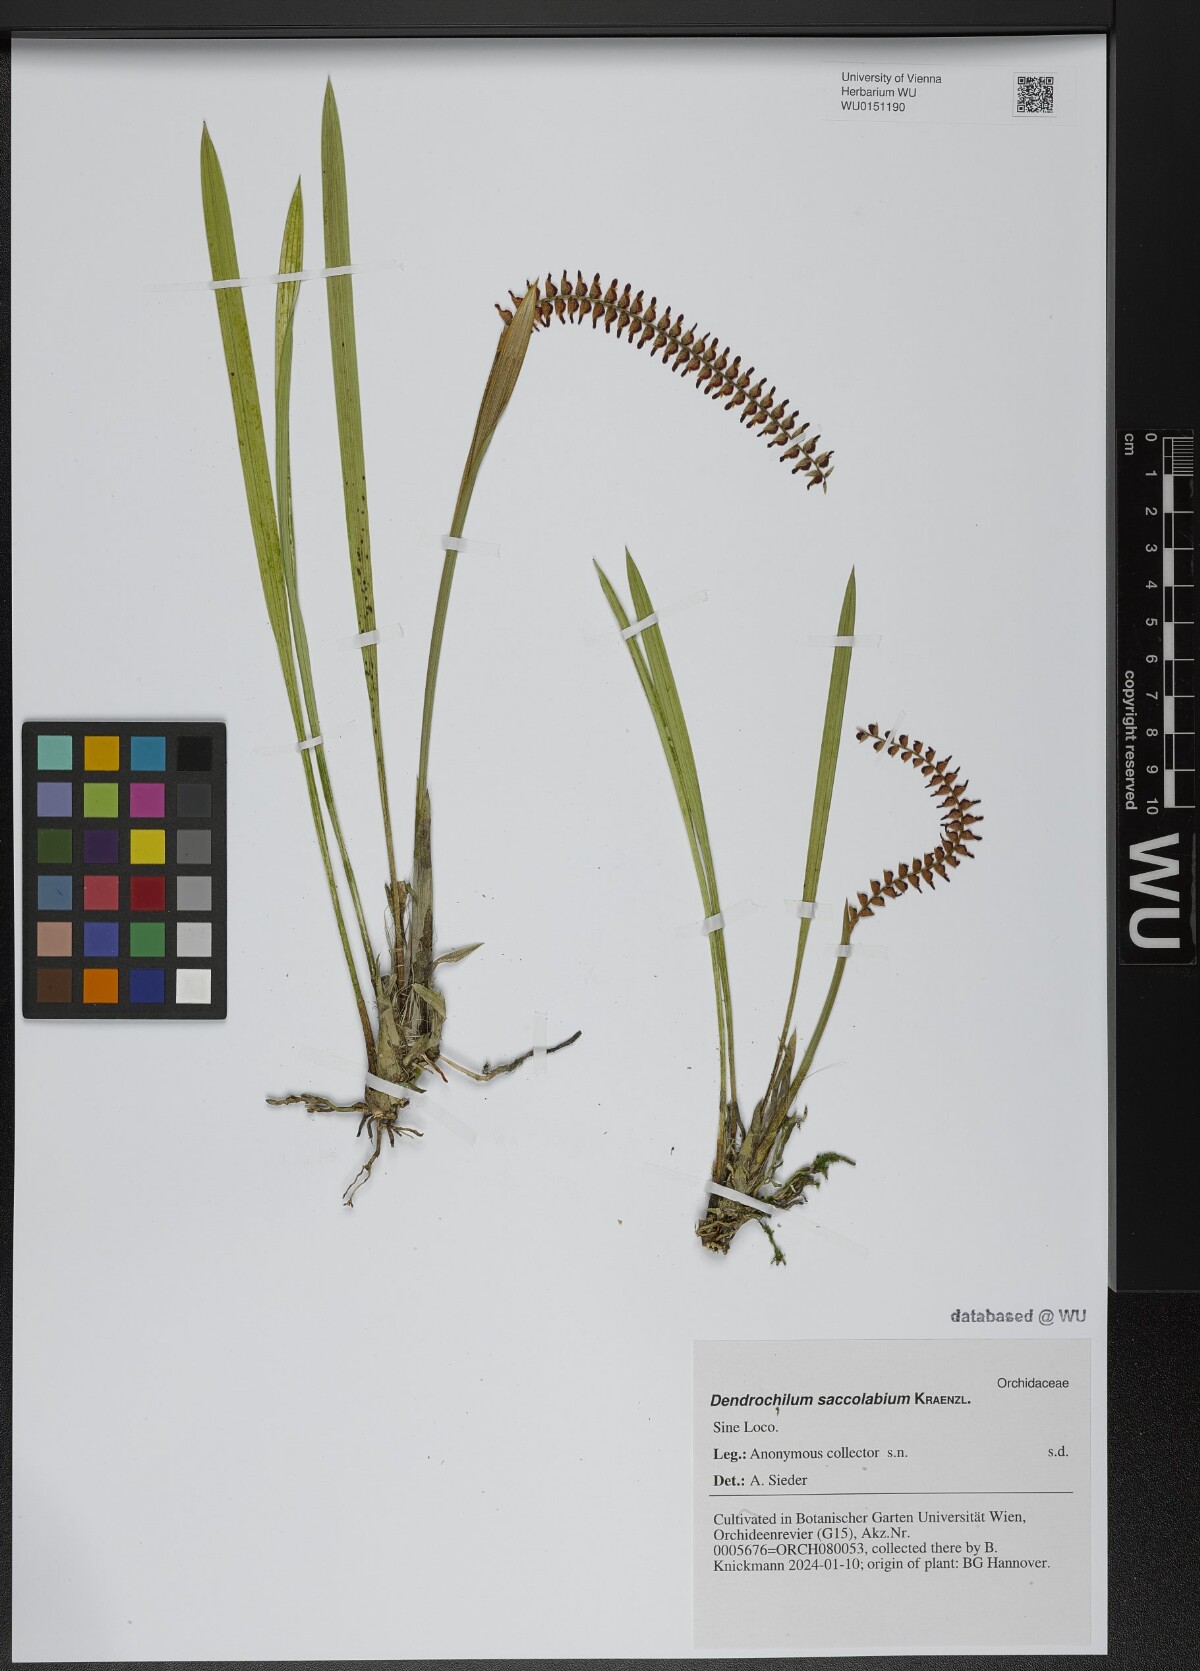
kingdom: Plantae
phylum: Tracheophyta
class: Liliopsida
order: Asparagales
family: Orchidaceae
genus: Coelogyne
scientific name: Coelogyne saccolabium
